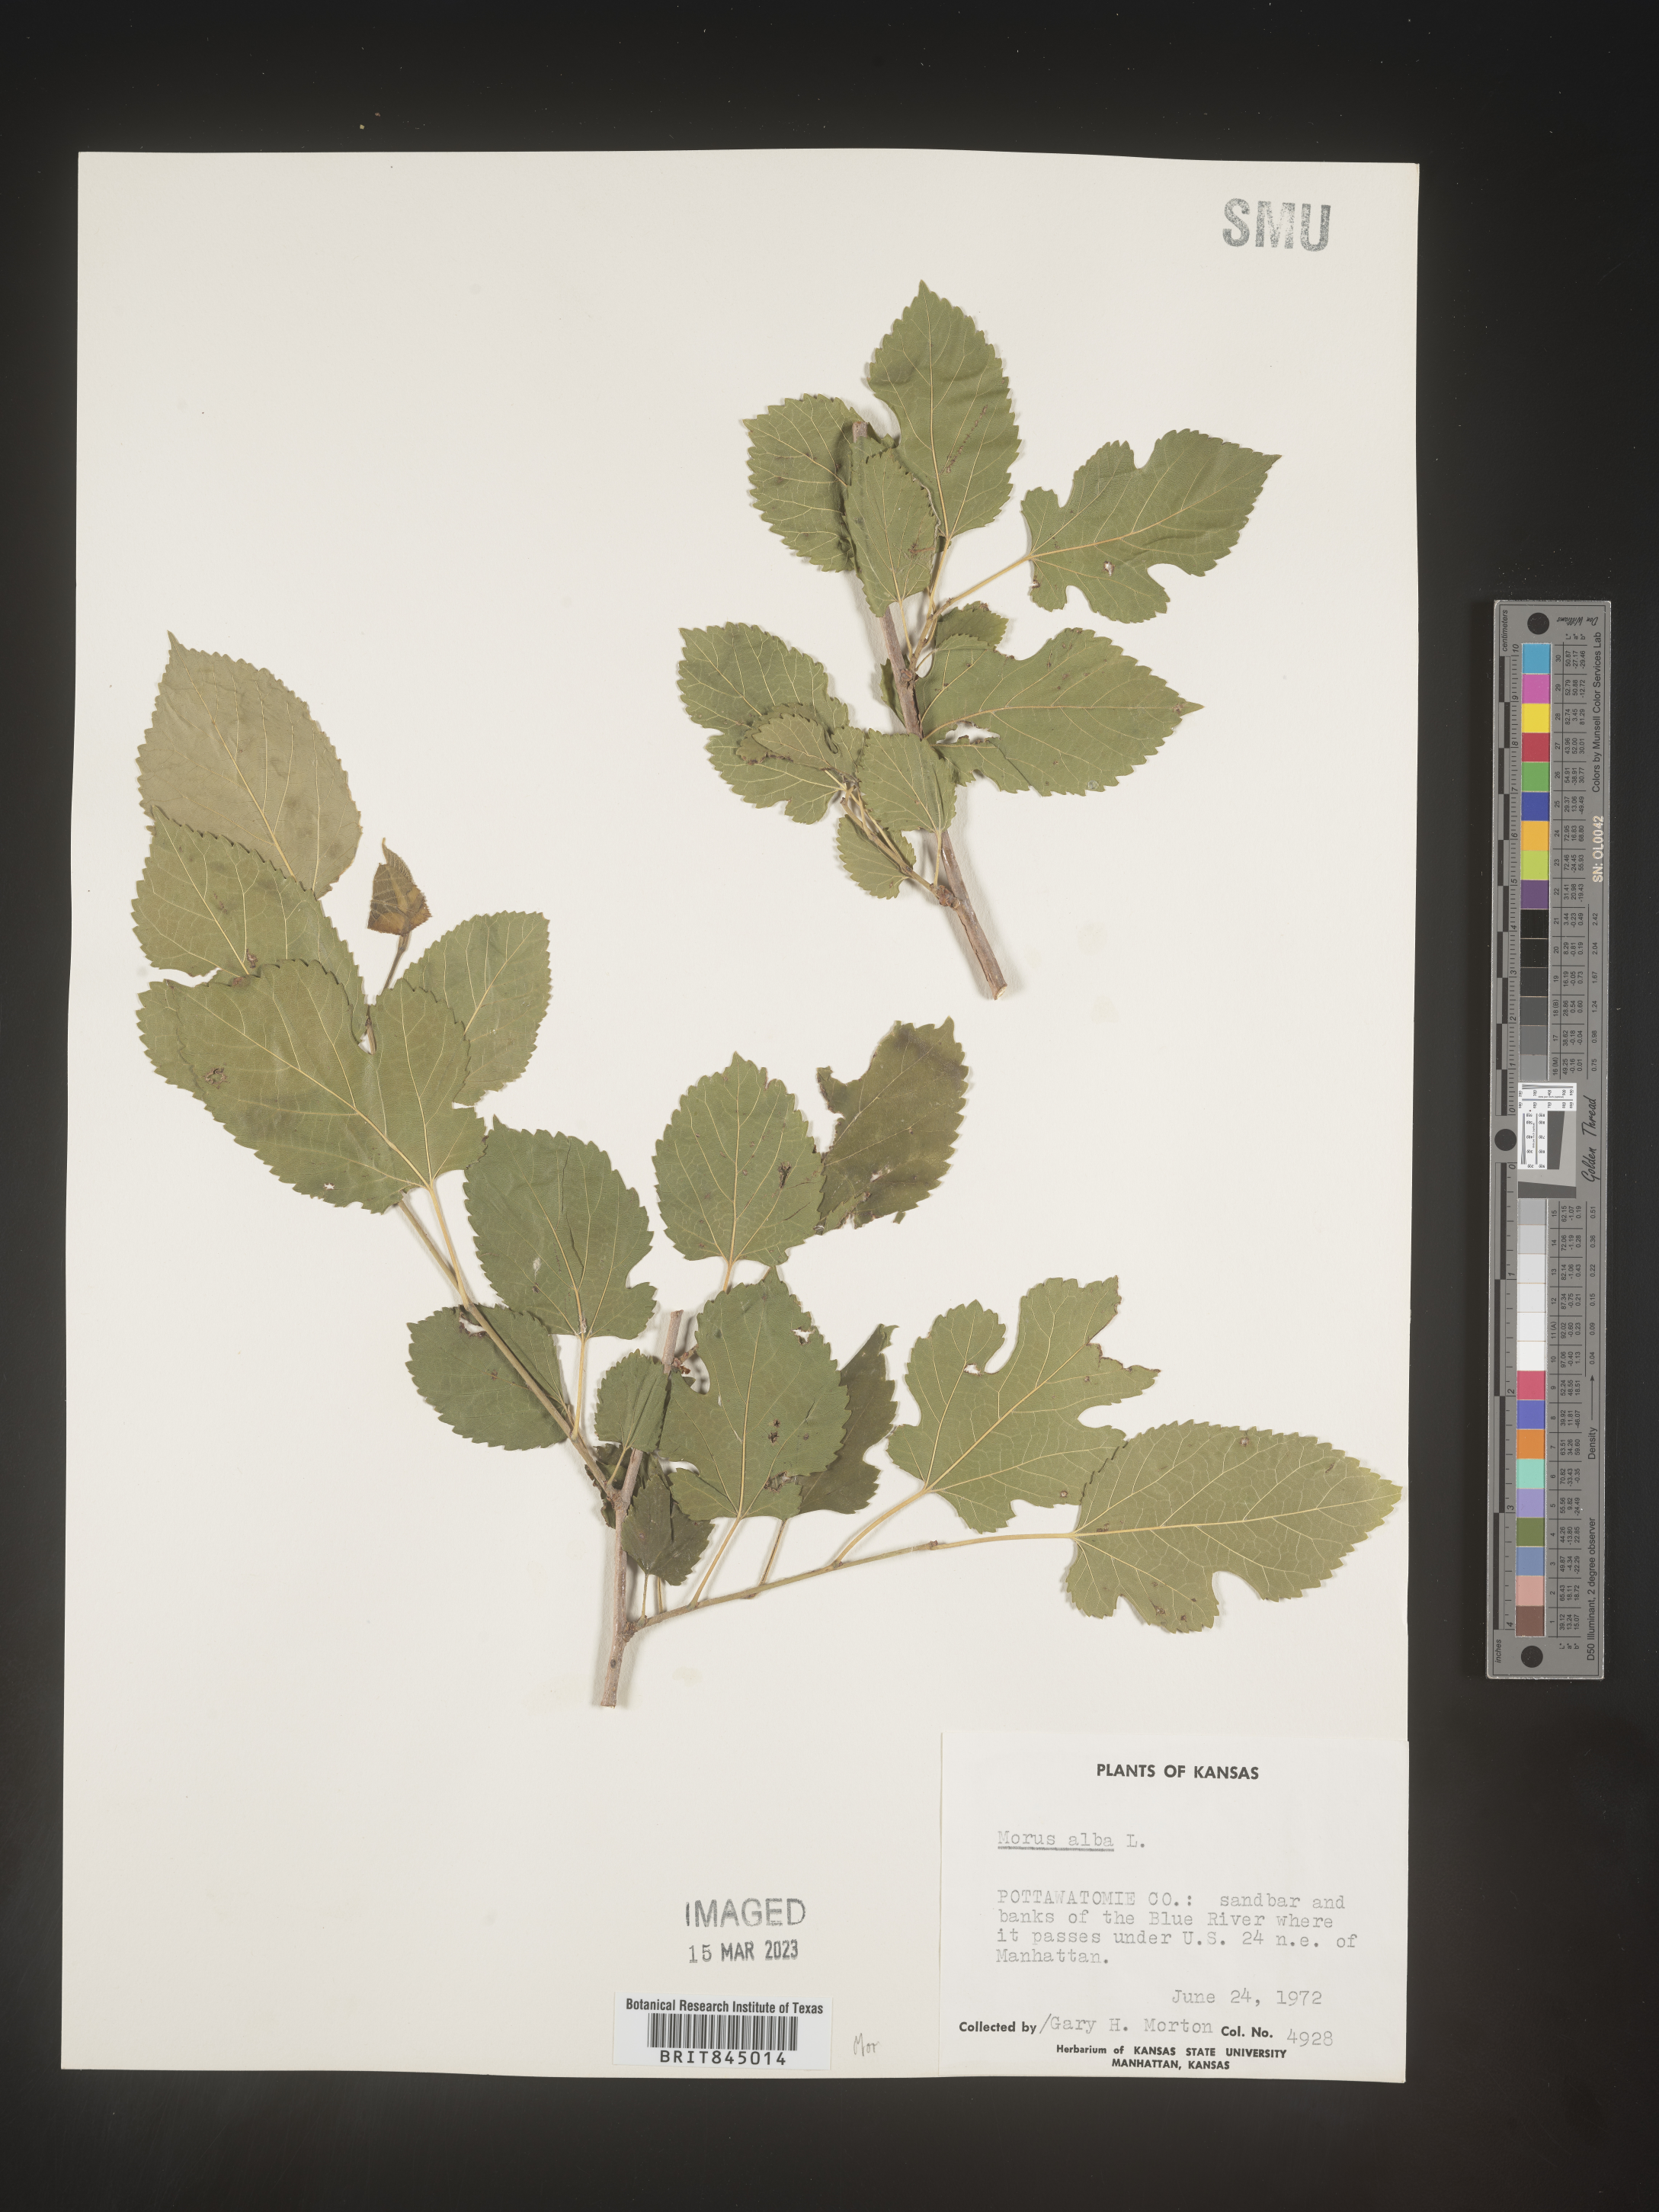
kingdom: Plantae
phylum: Tracheophyta
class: Magnoliopsida
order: Rosales
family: Moraceae
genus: Morus
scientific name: Morus alba
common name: White mulberry
